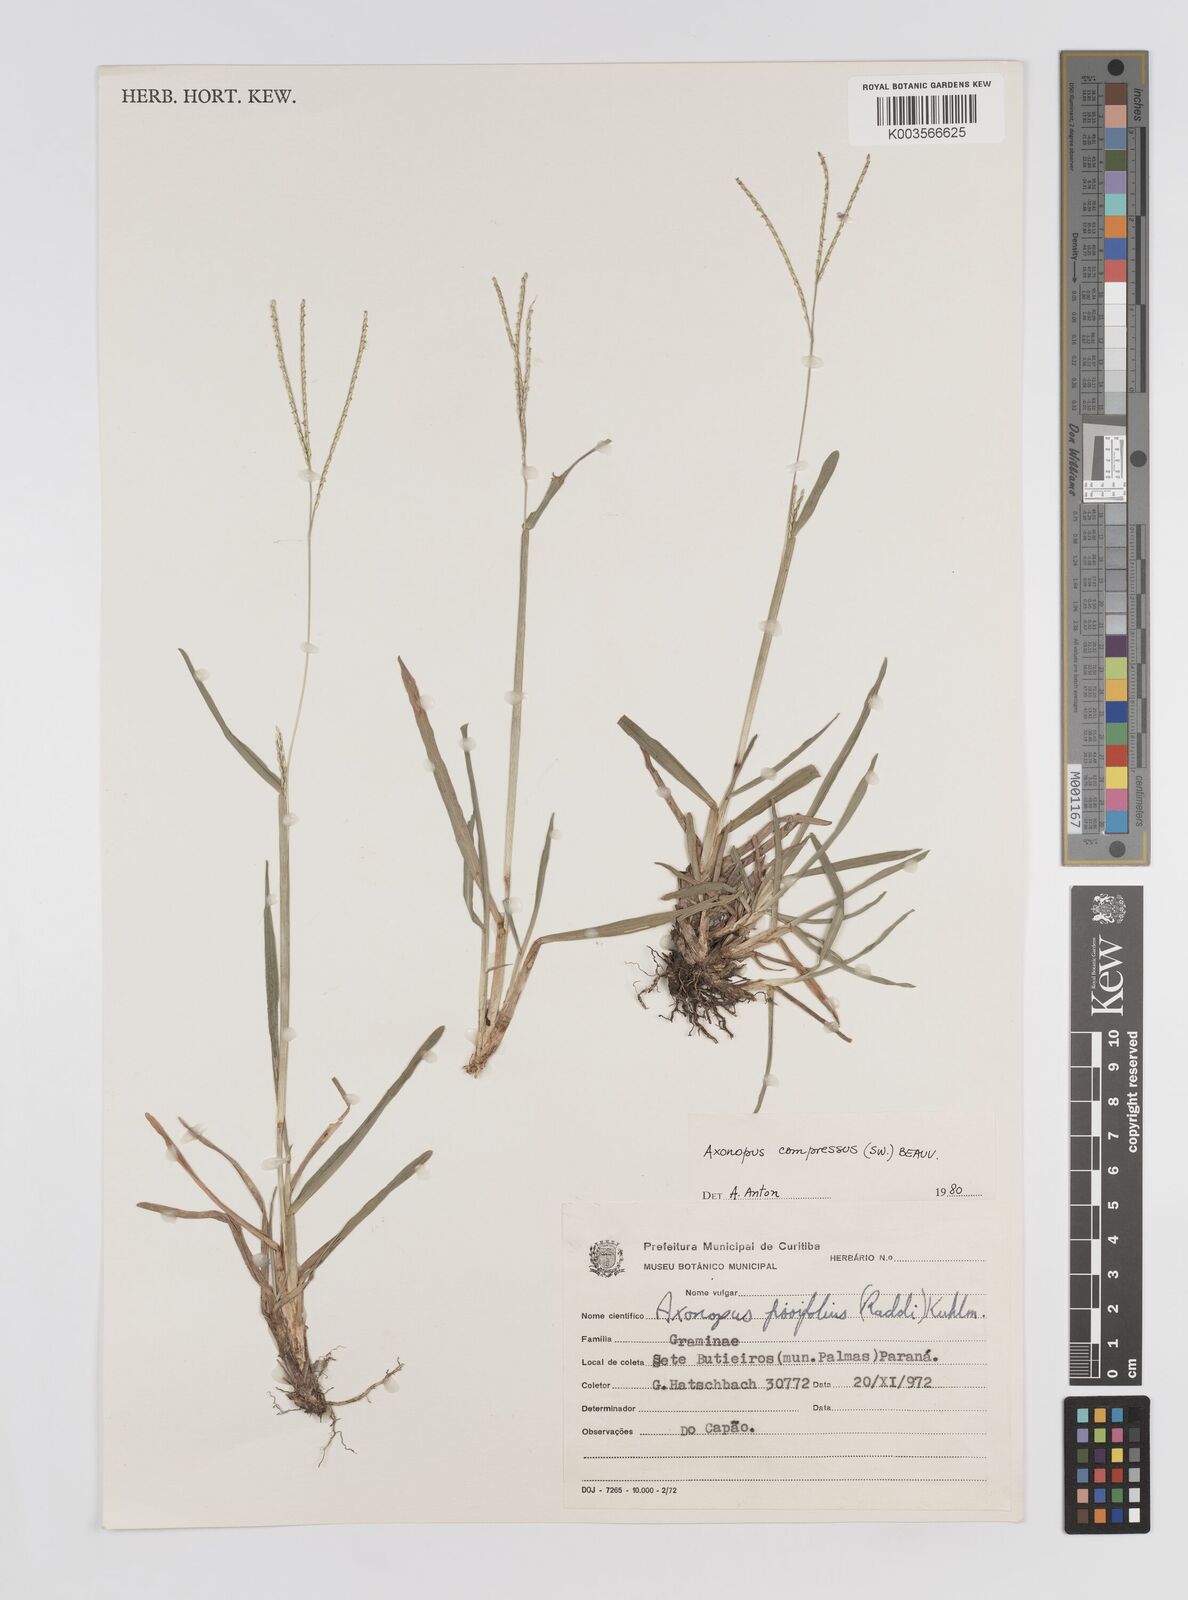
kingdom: Plantae
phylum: Tracheophyta
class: Liliopsida
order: Poales
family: Poaceae
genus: Axonopus
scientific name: Axonopus compressus
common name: American carpet grass
